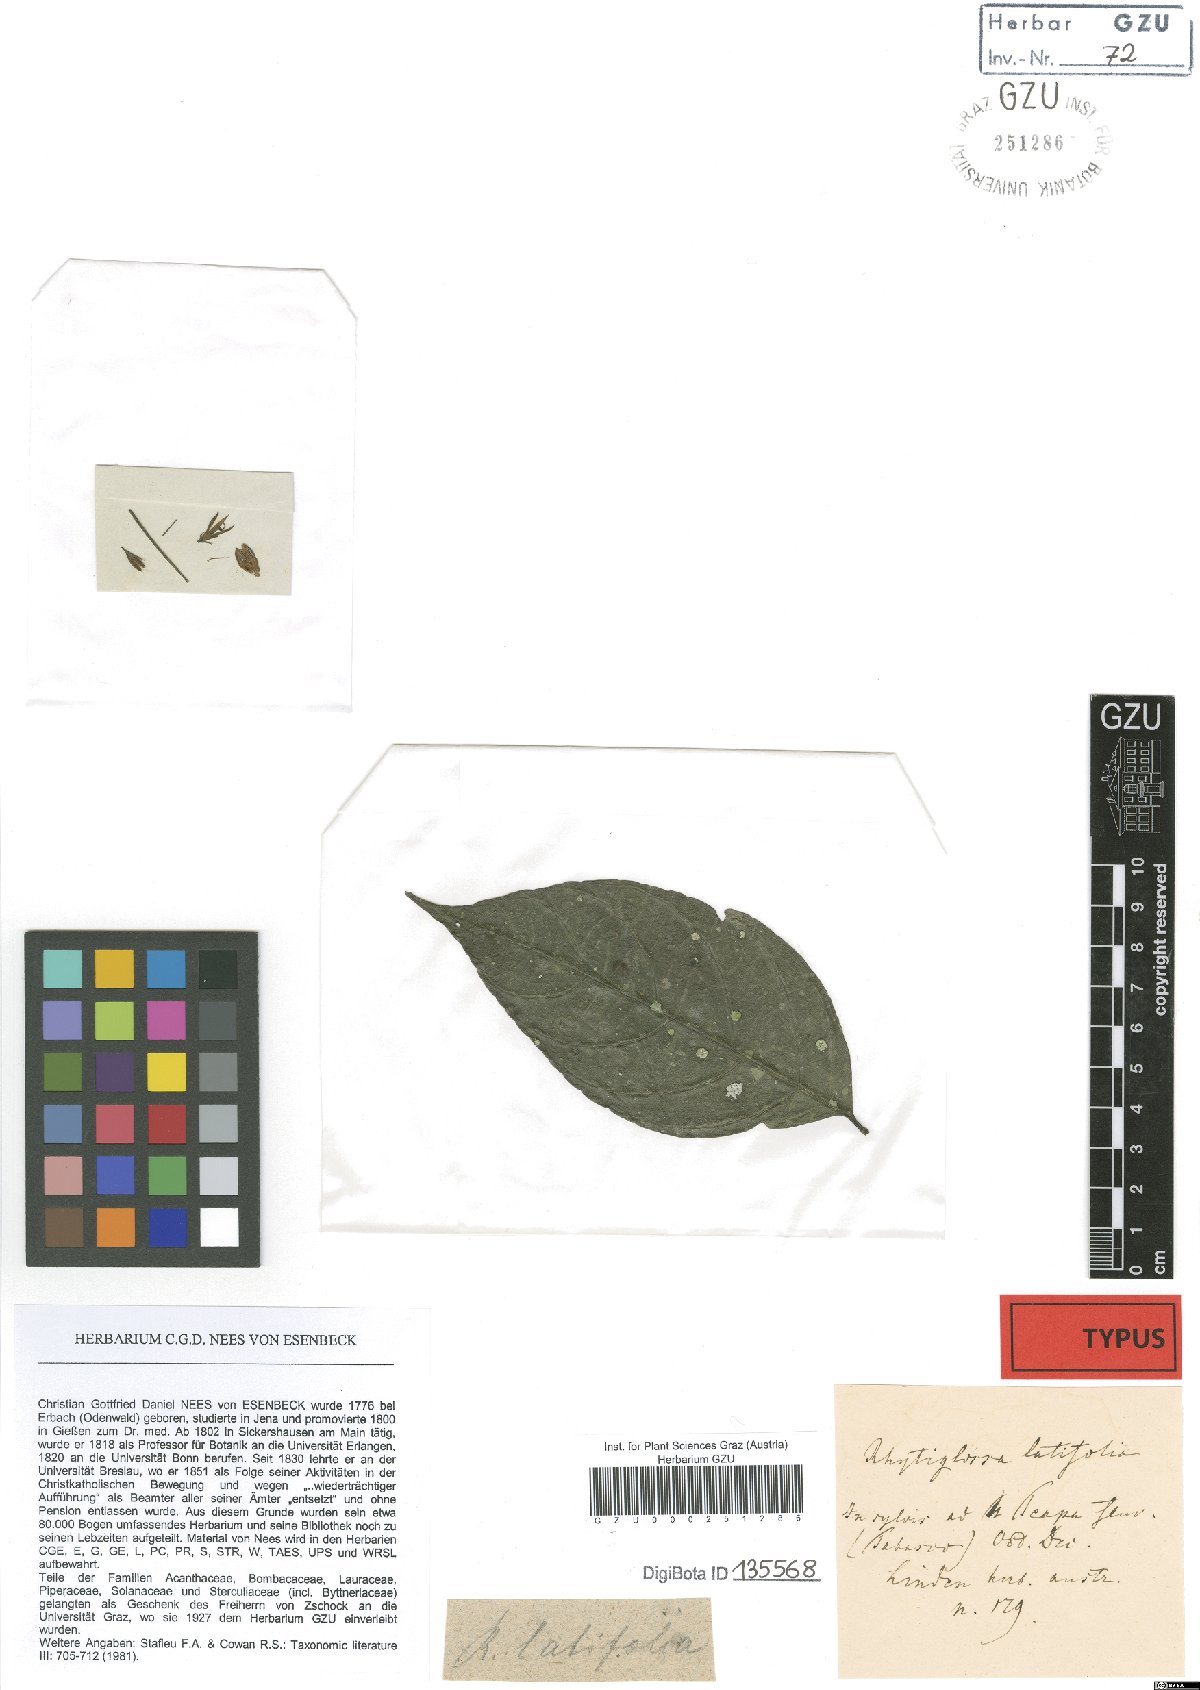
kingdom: Plantae
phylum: Tracheophyta
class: Magnoliopsida
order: Lamiales
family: Acanthaceae
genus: Pseuderanthemum
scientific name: Pseuderanthemum latifolium
